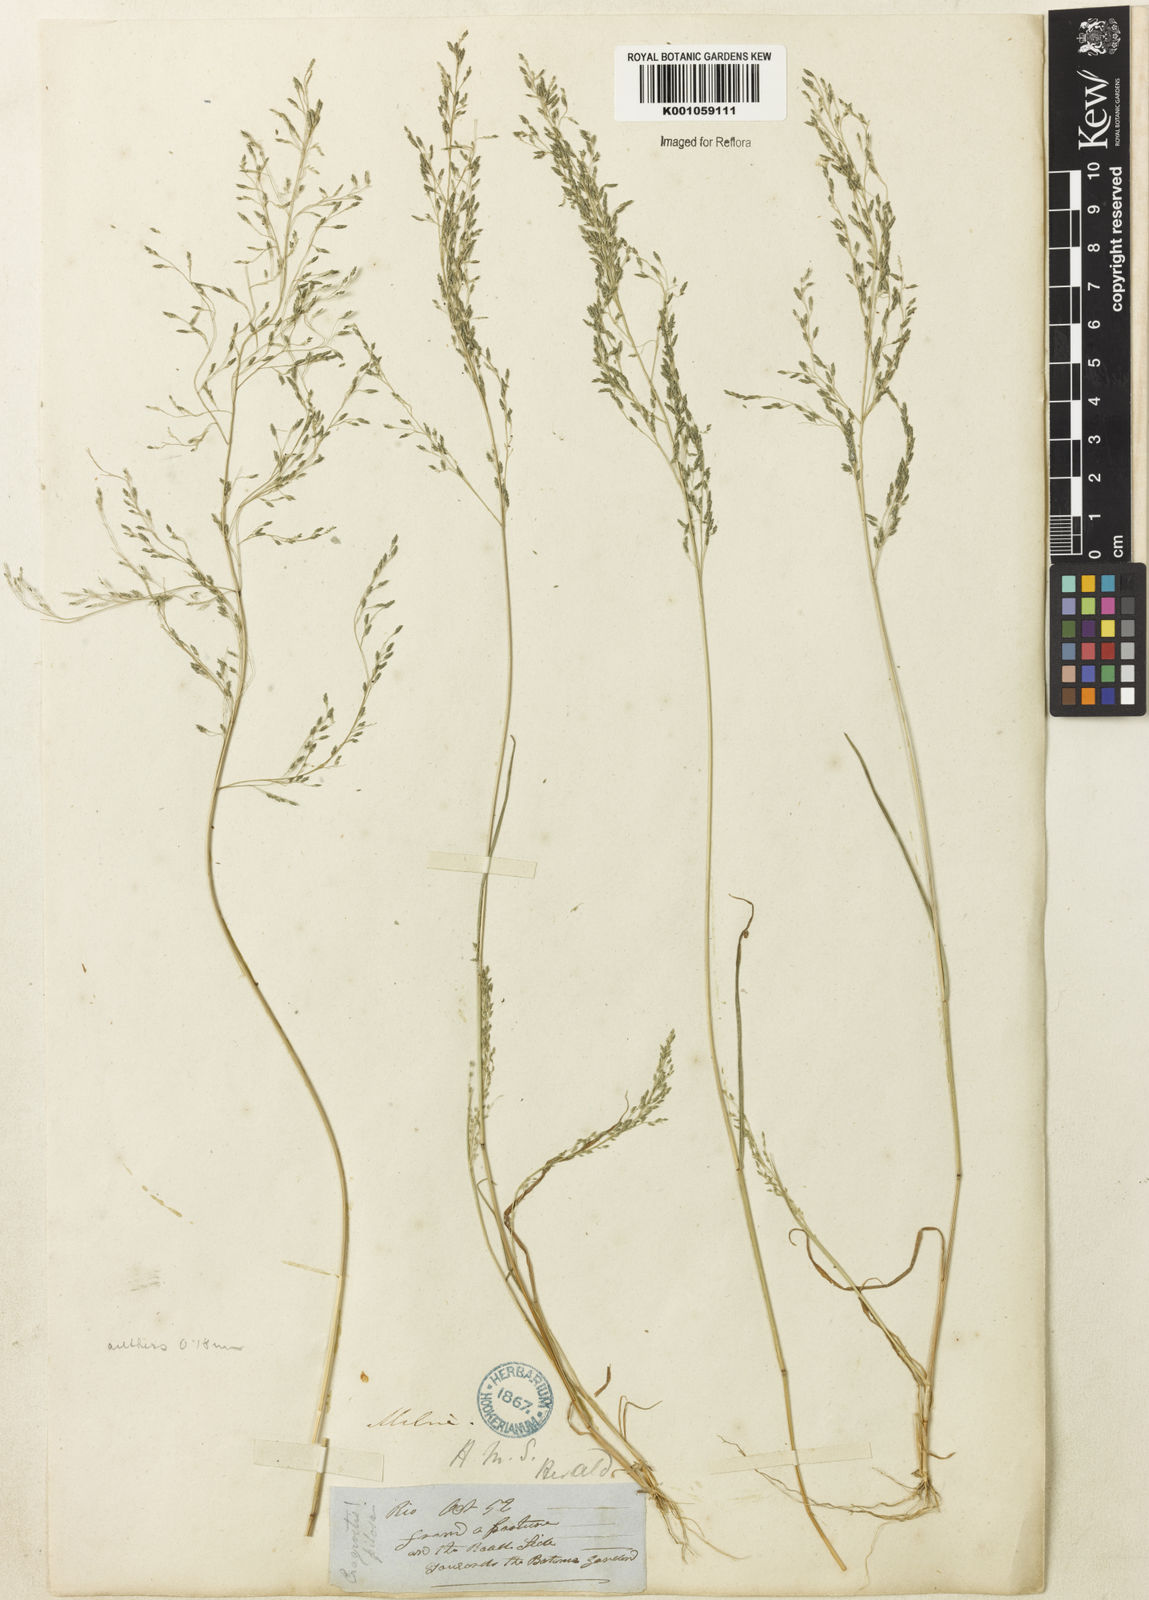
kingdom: Plantae
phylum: Tracheophyta
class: Liliopsida
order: Poales
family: Poaceae
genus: Eragrostis
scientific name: Eragrostis pilosa
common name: Indian lovegrass
